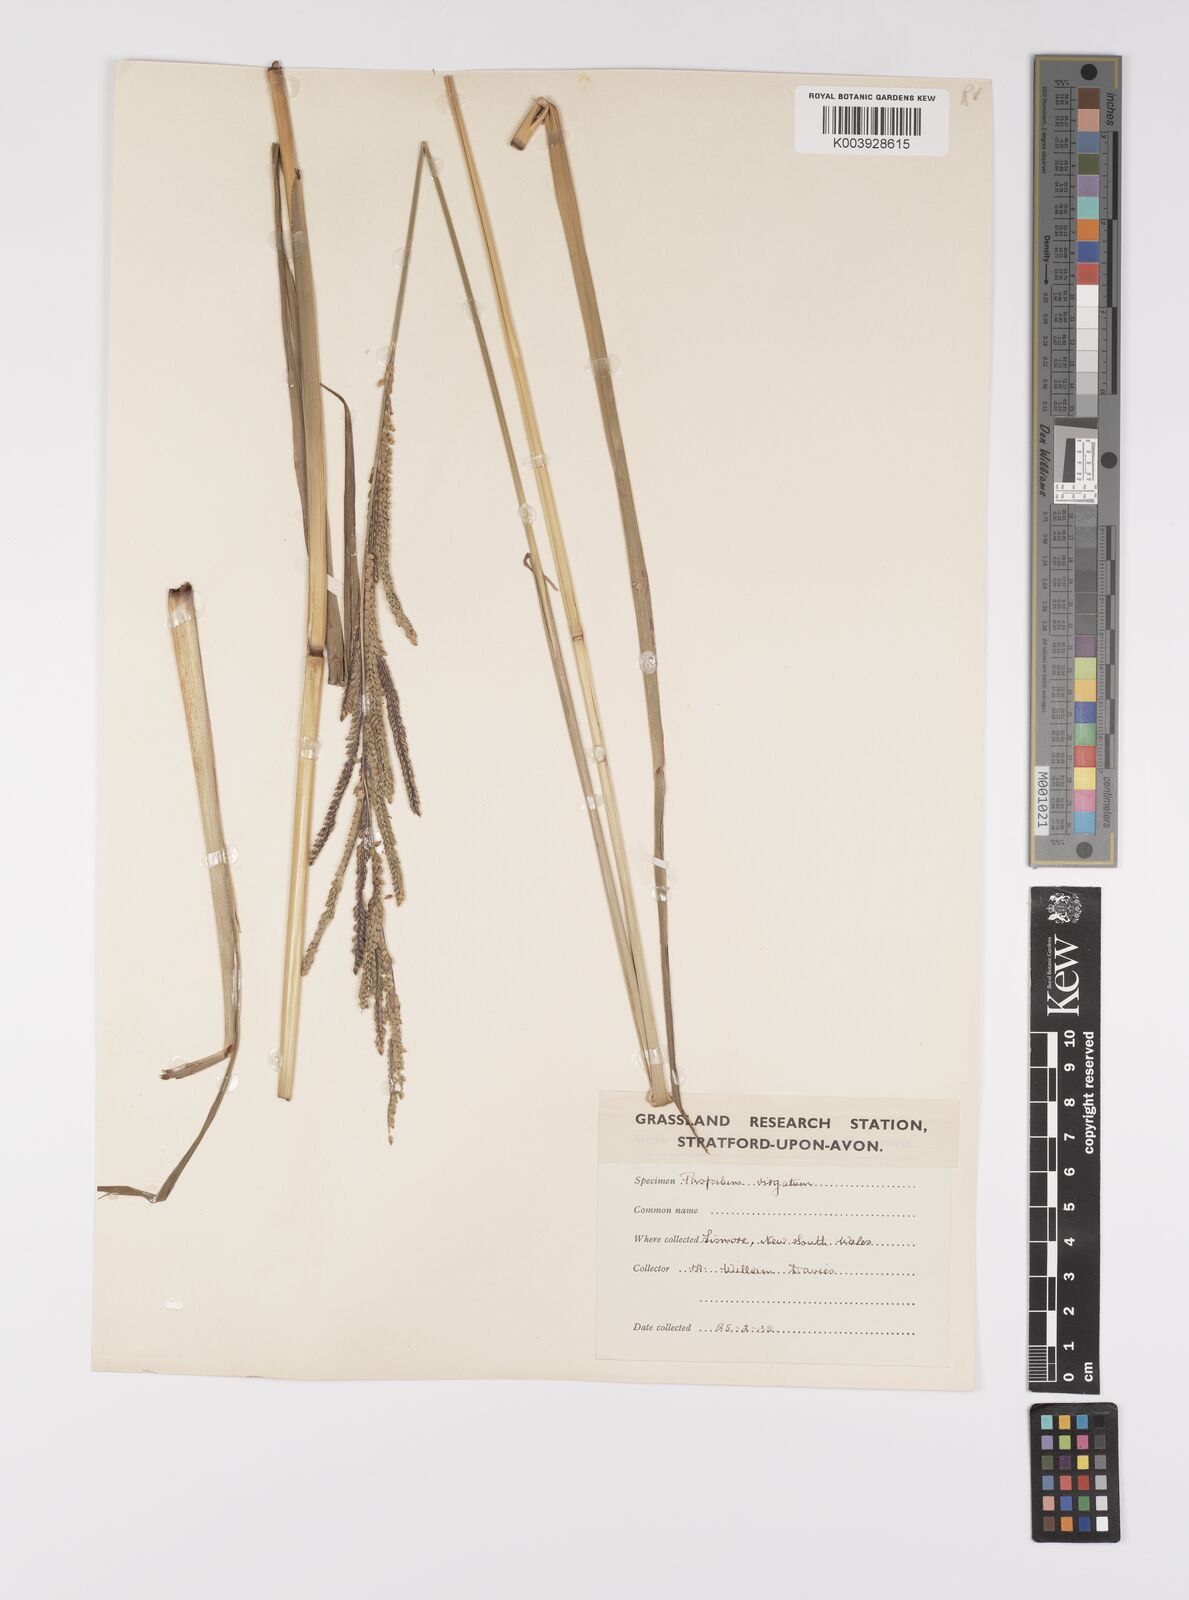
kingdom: Plantae
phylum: Tracheophyta
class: Liliopsida
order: Poales
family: Poaceae
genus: Paspalum
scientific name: Paspalum urvillei
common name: Vasey's grass
